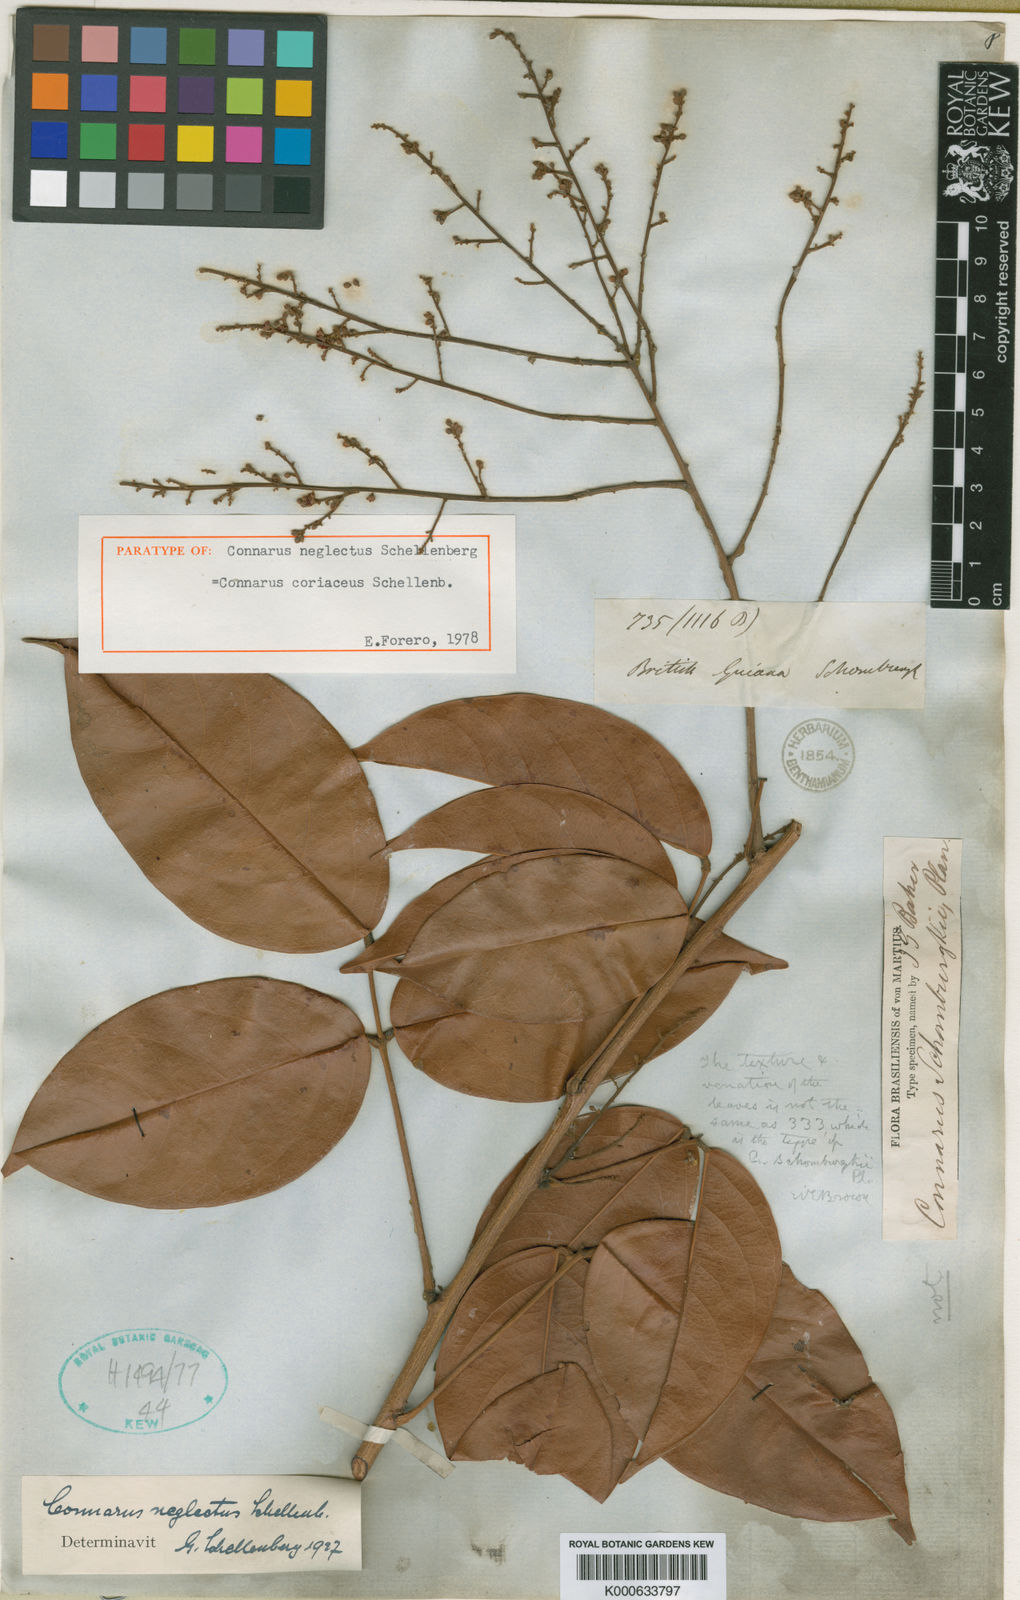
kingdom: Plantae
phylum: Tracheophyta
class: Magnoliopsida
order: Oxalidales
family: Connaraceae
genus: Connarus
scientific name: Connarus coriaceus
